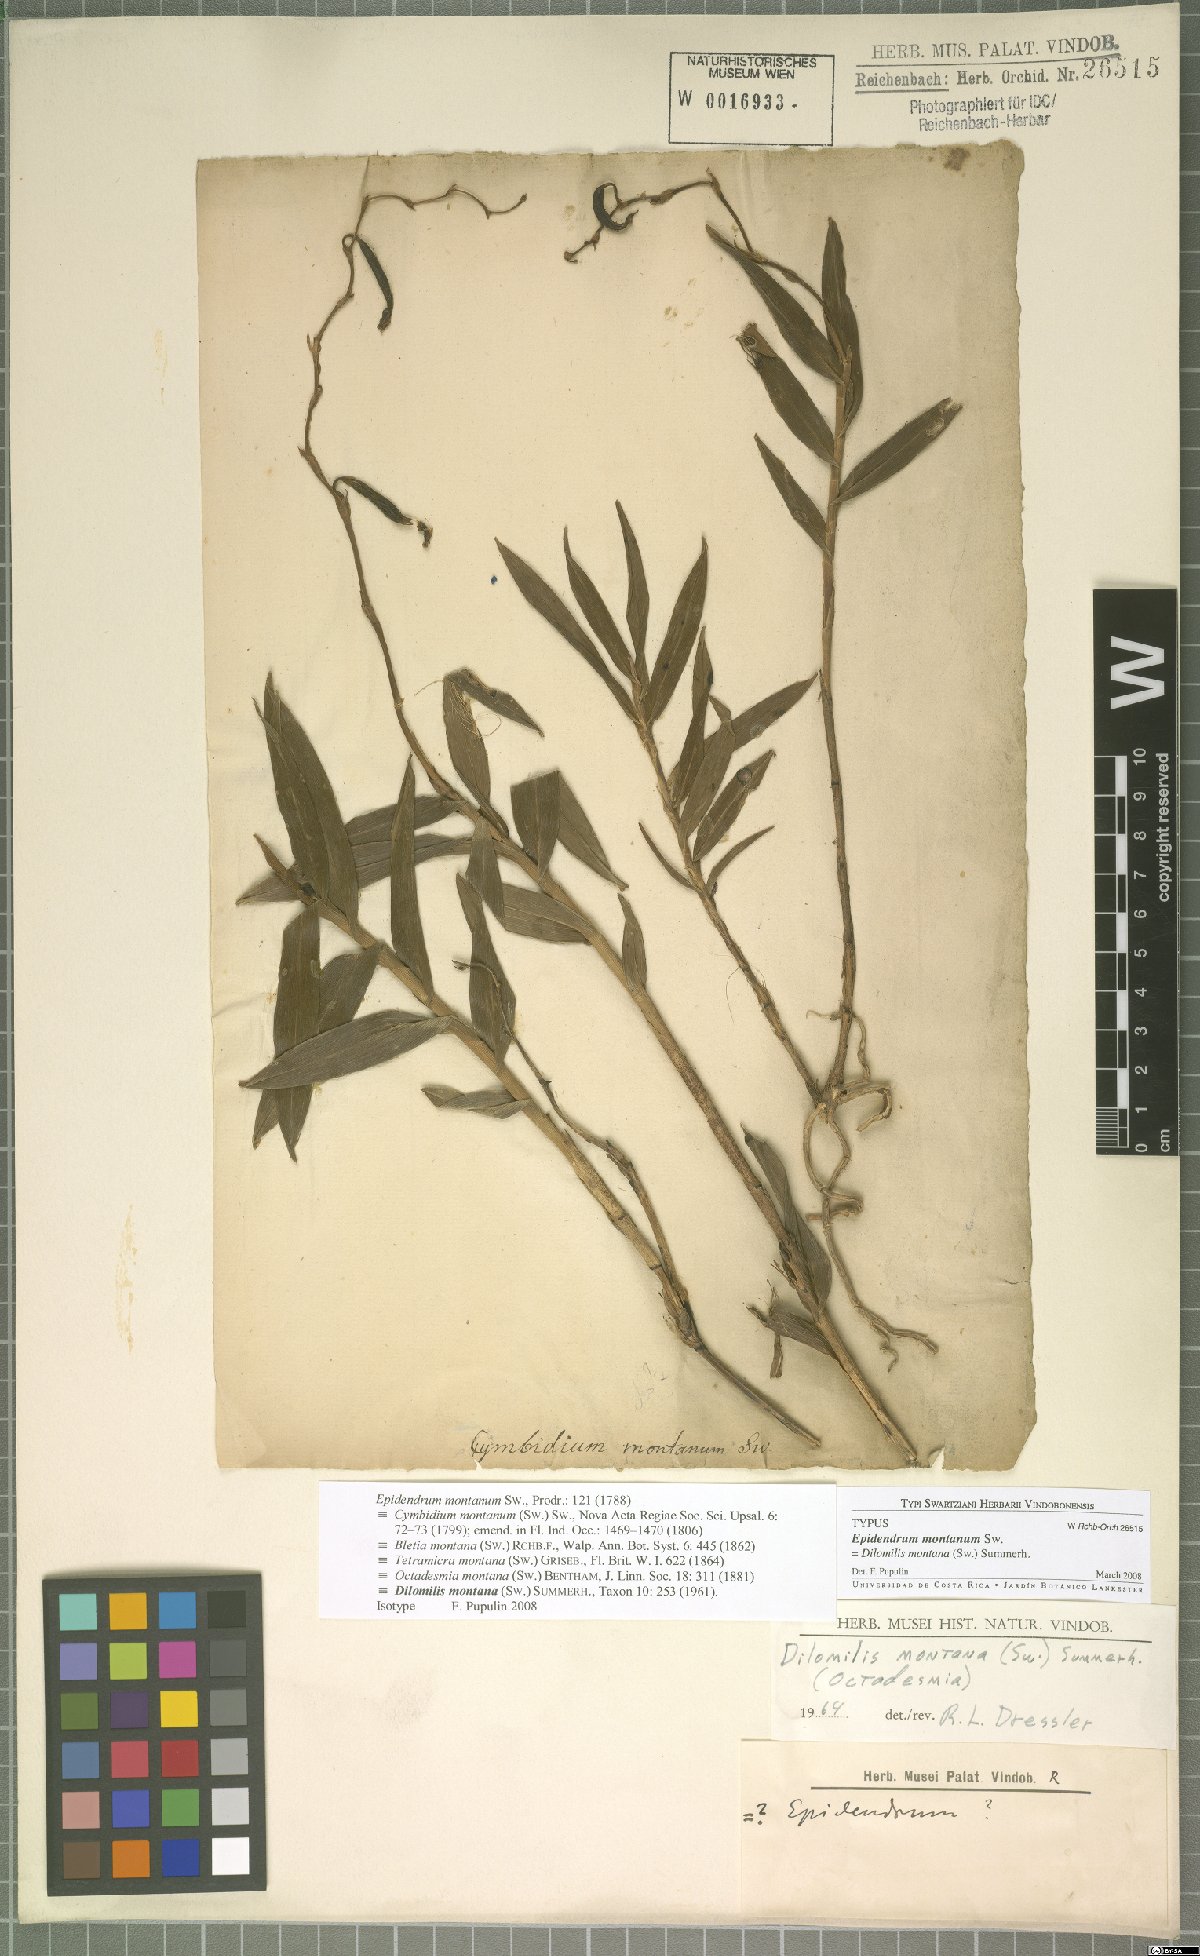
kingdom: Plantae
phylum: Tracheophyta
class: Liliopsida
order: Asparagales
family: Orchidaceae
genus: Dilomilis
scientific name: Dilomilis montana
